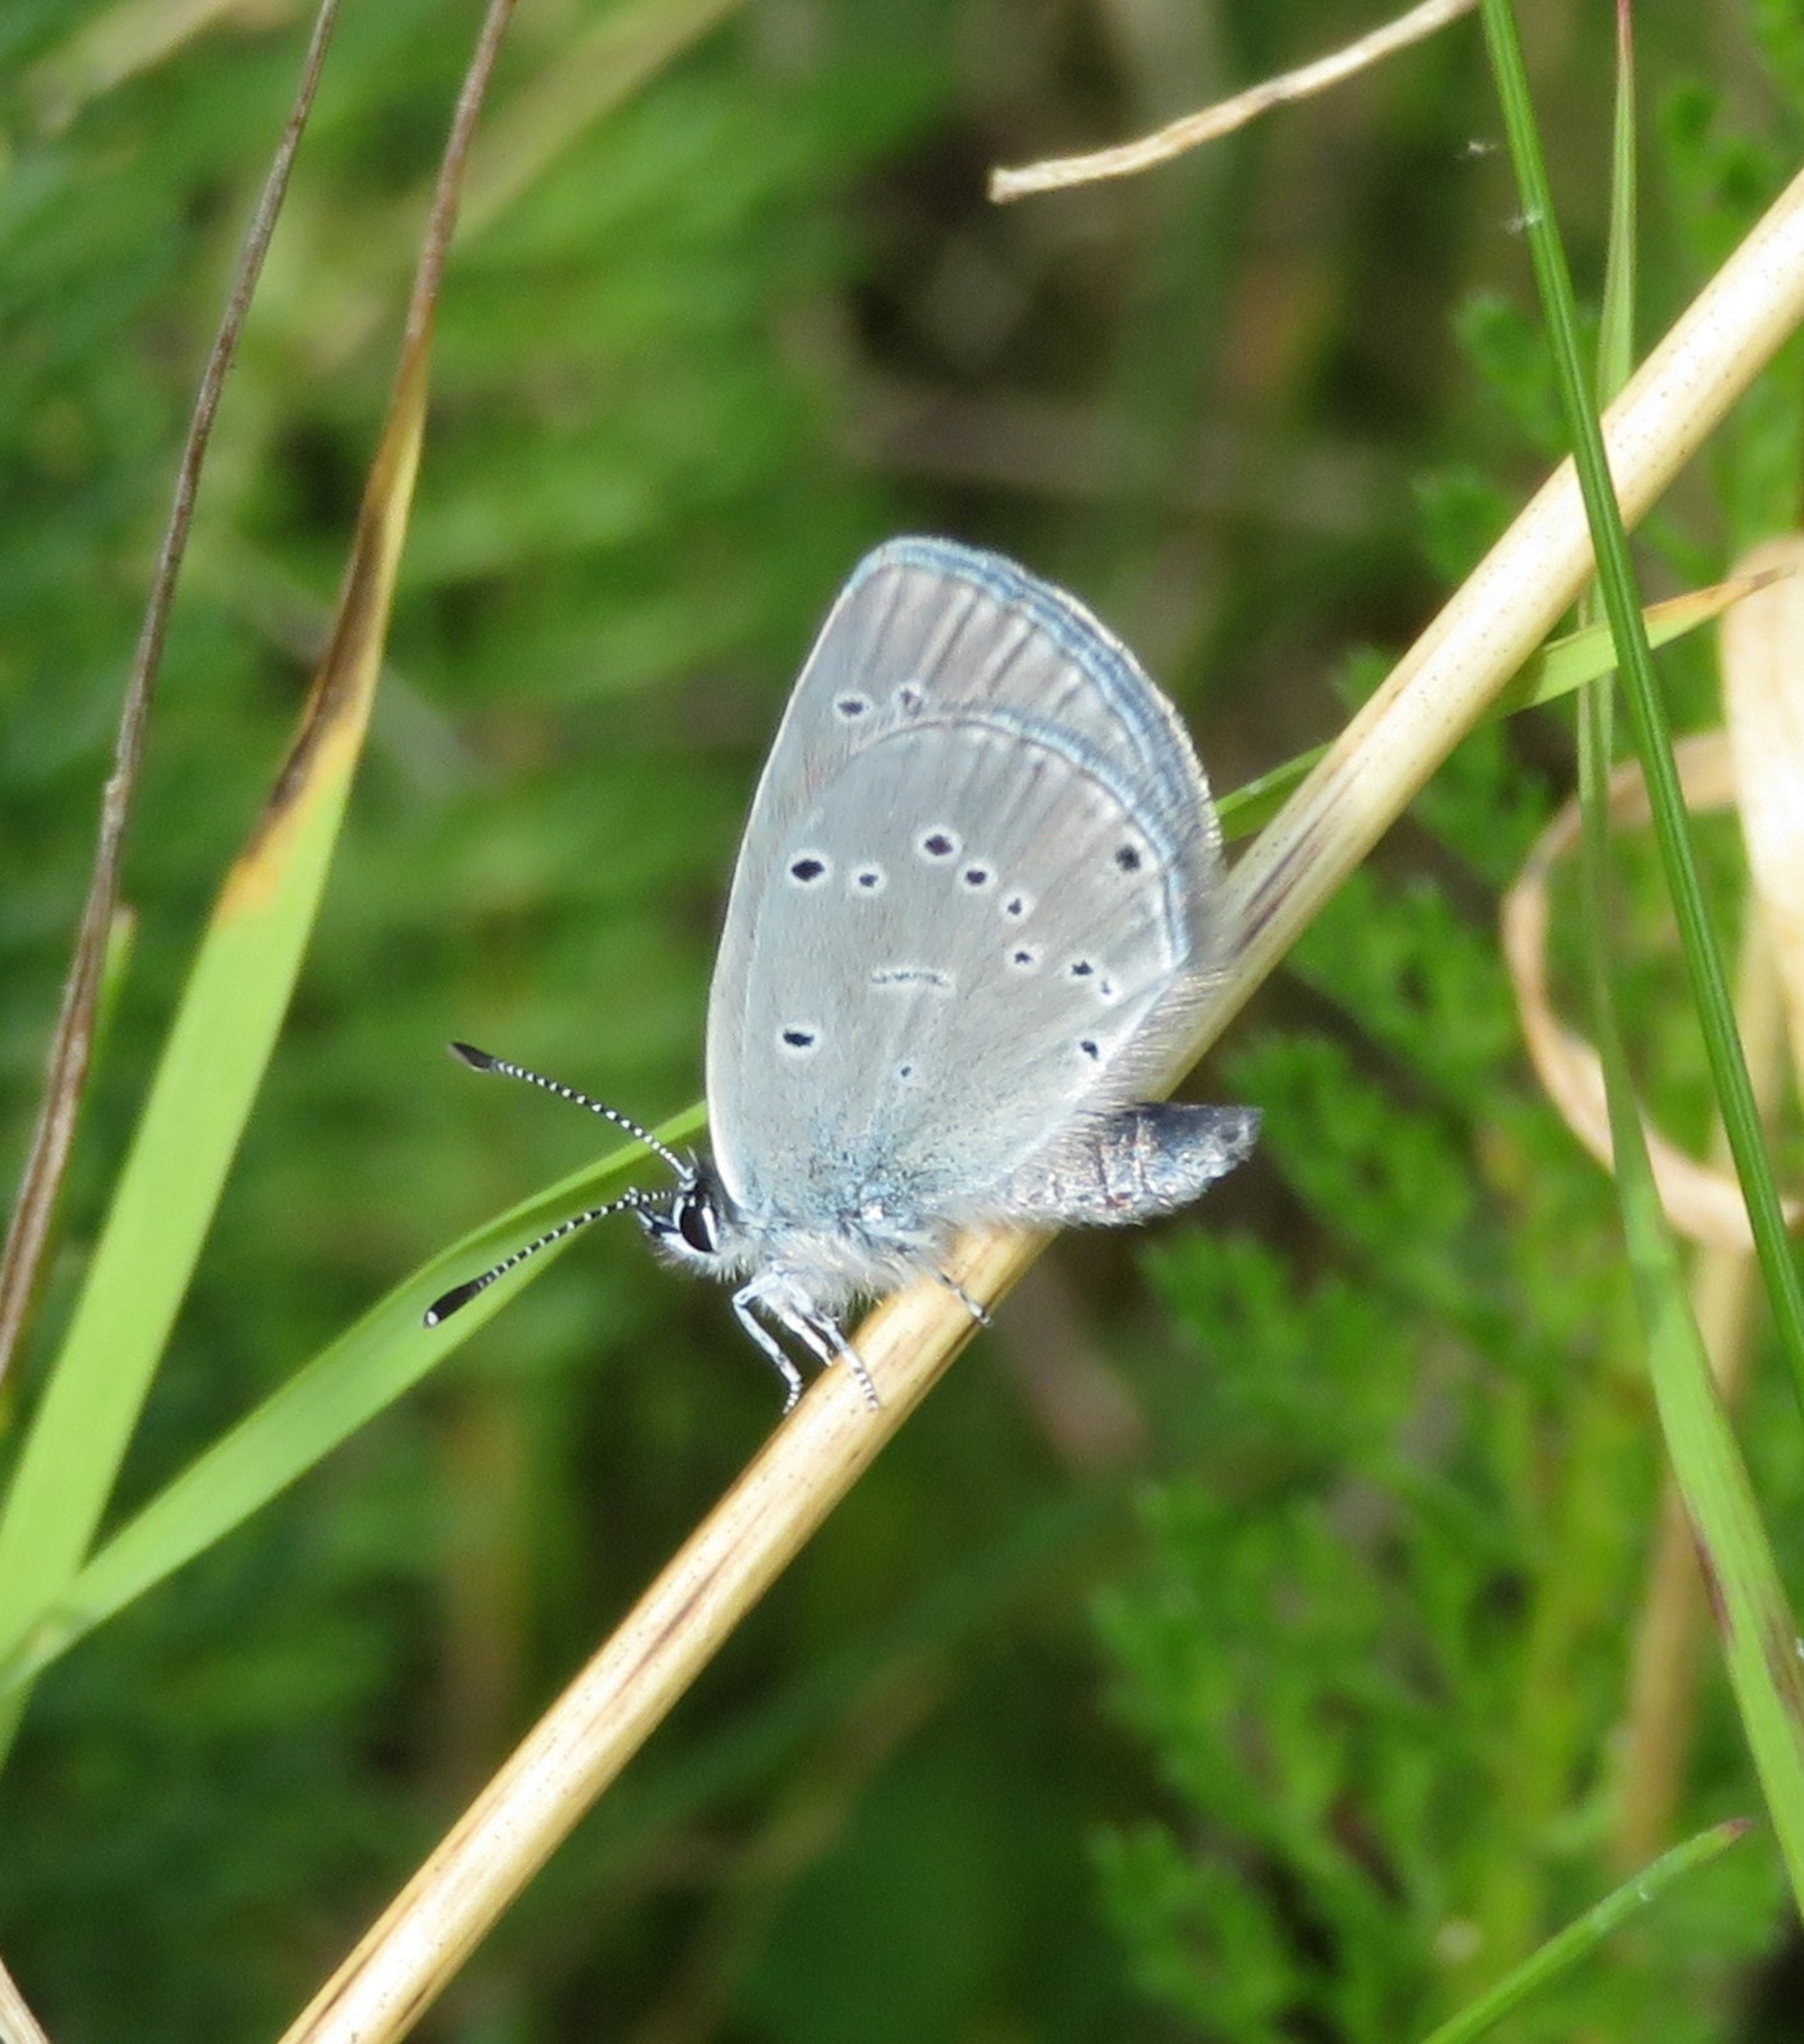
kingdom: Animalia
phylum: Arthropoda
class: Insecta
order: Lepidoptera
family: Lycaenidae
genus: Cupido
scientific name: Cupido minimus
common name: Dværgblåfugl
